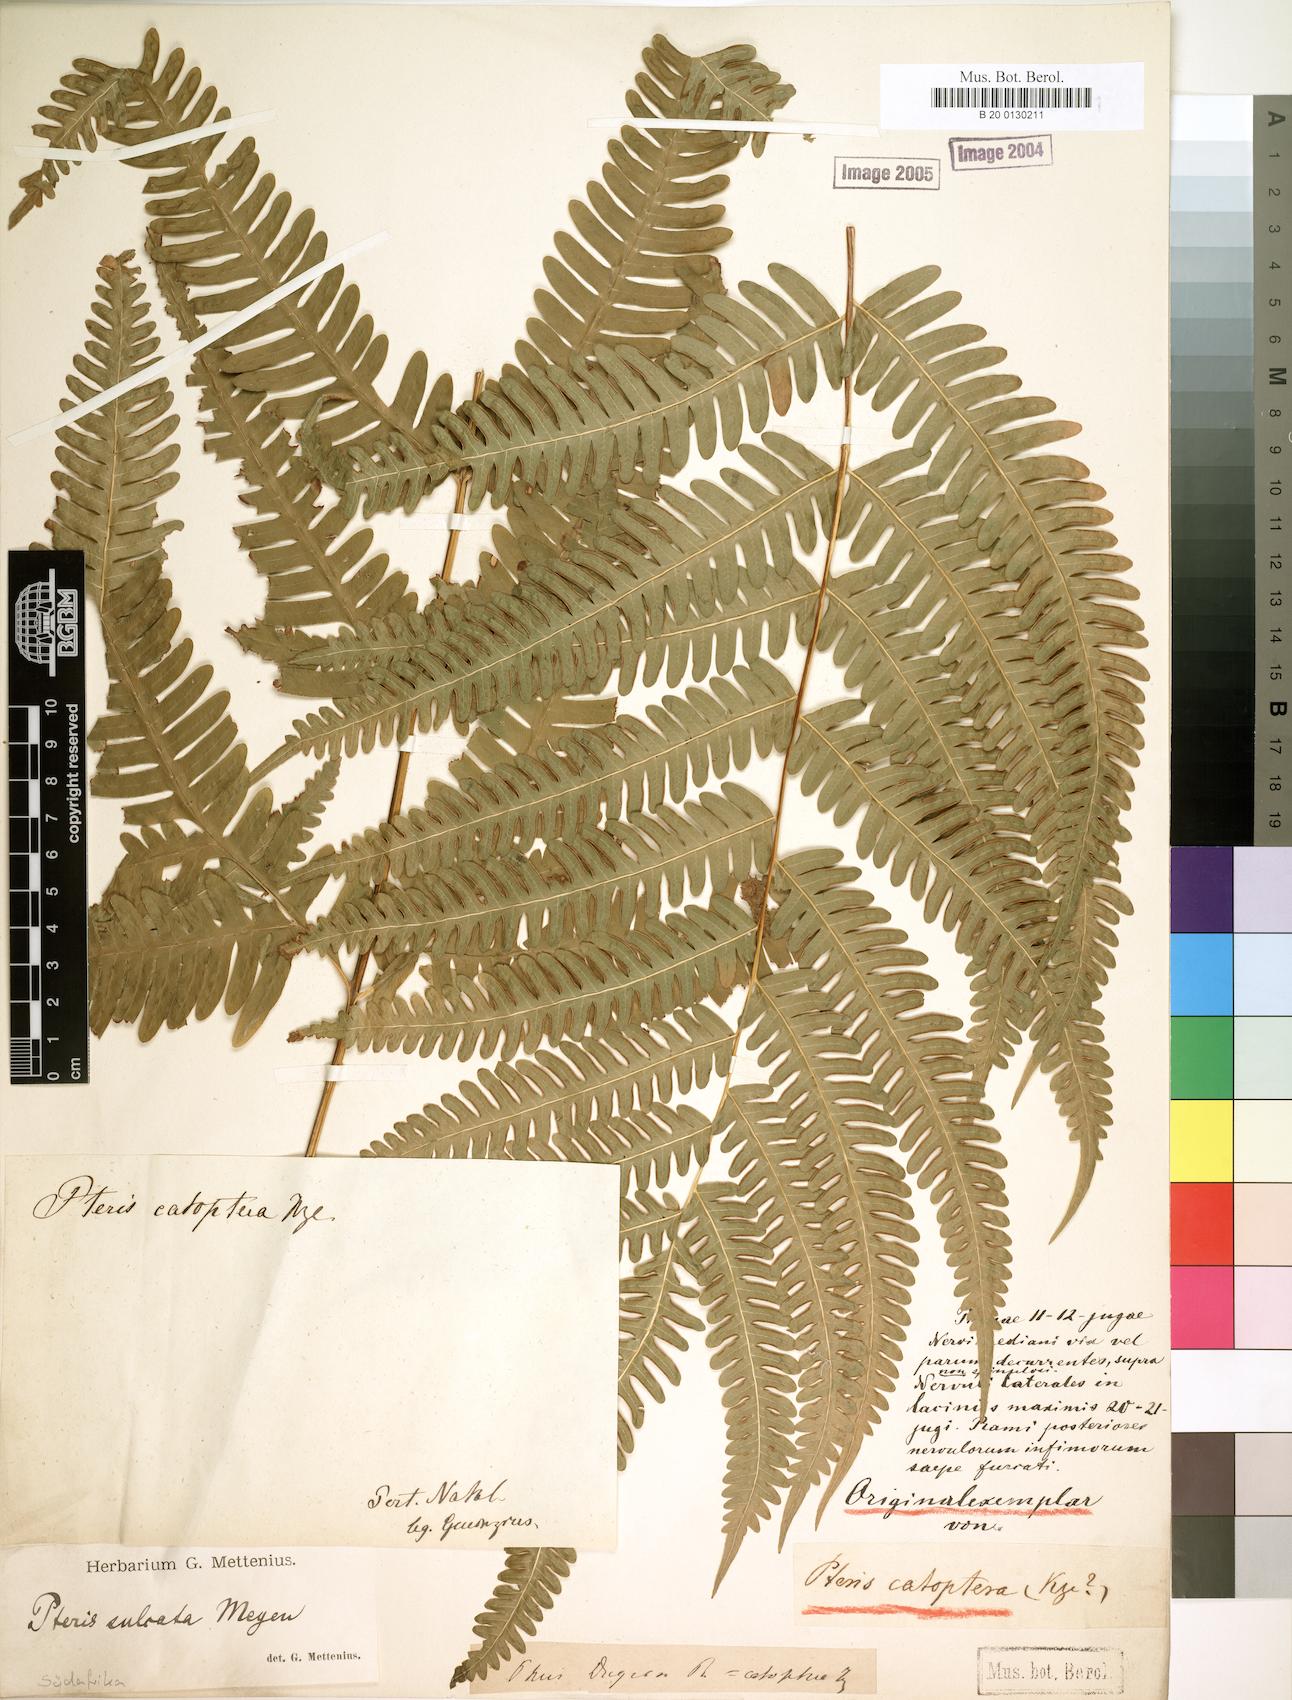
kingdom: Plantae
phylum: Tracheophyta
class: Polypodiopsida
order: Polypodiales
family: Pteridaceae
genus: Pteris
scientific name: Pteris catoptera
